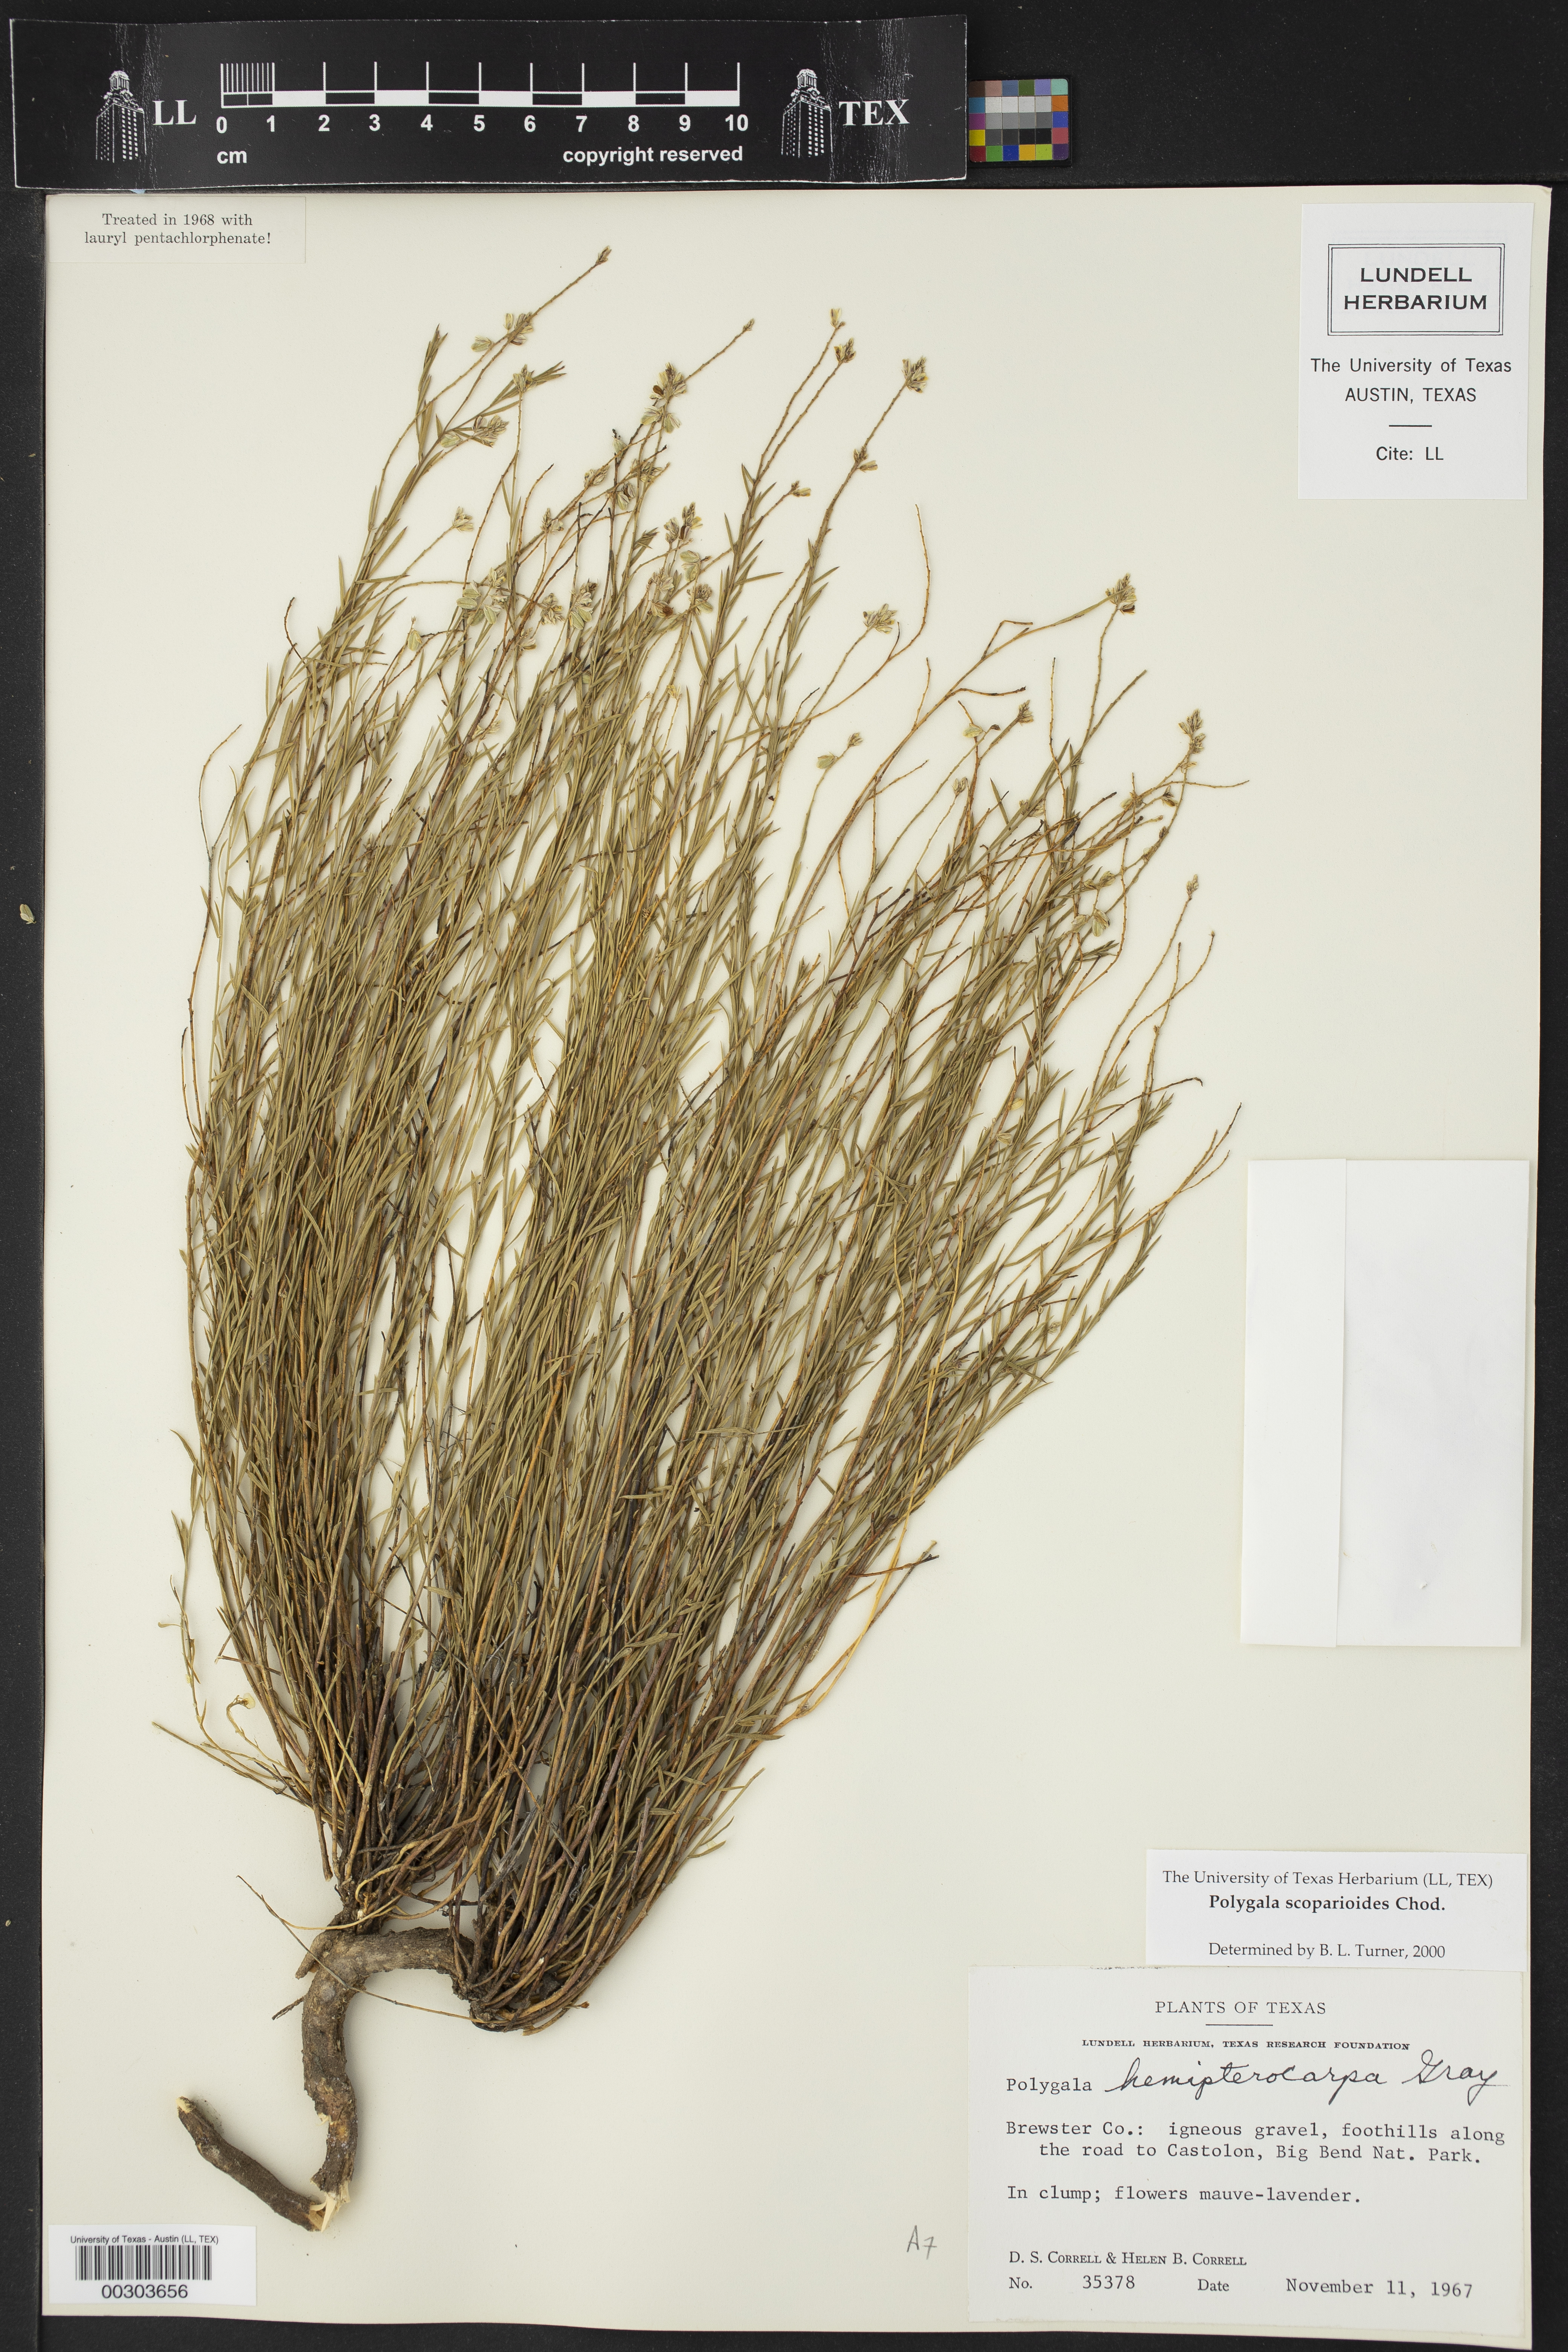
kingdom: Plantae
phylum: Tracheophyta
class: Magnoliopsida
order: Fabales
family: Polygalaceae
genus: Polygala
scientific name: Polygala scoparioides
